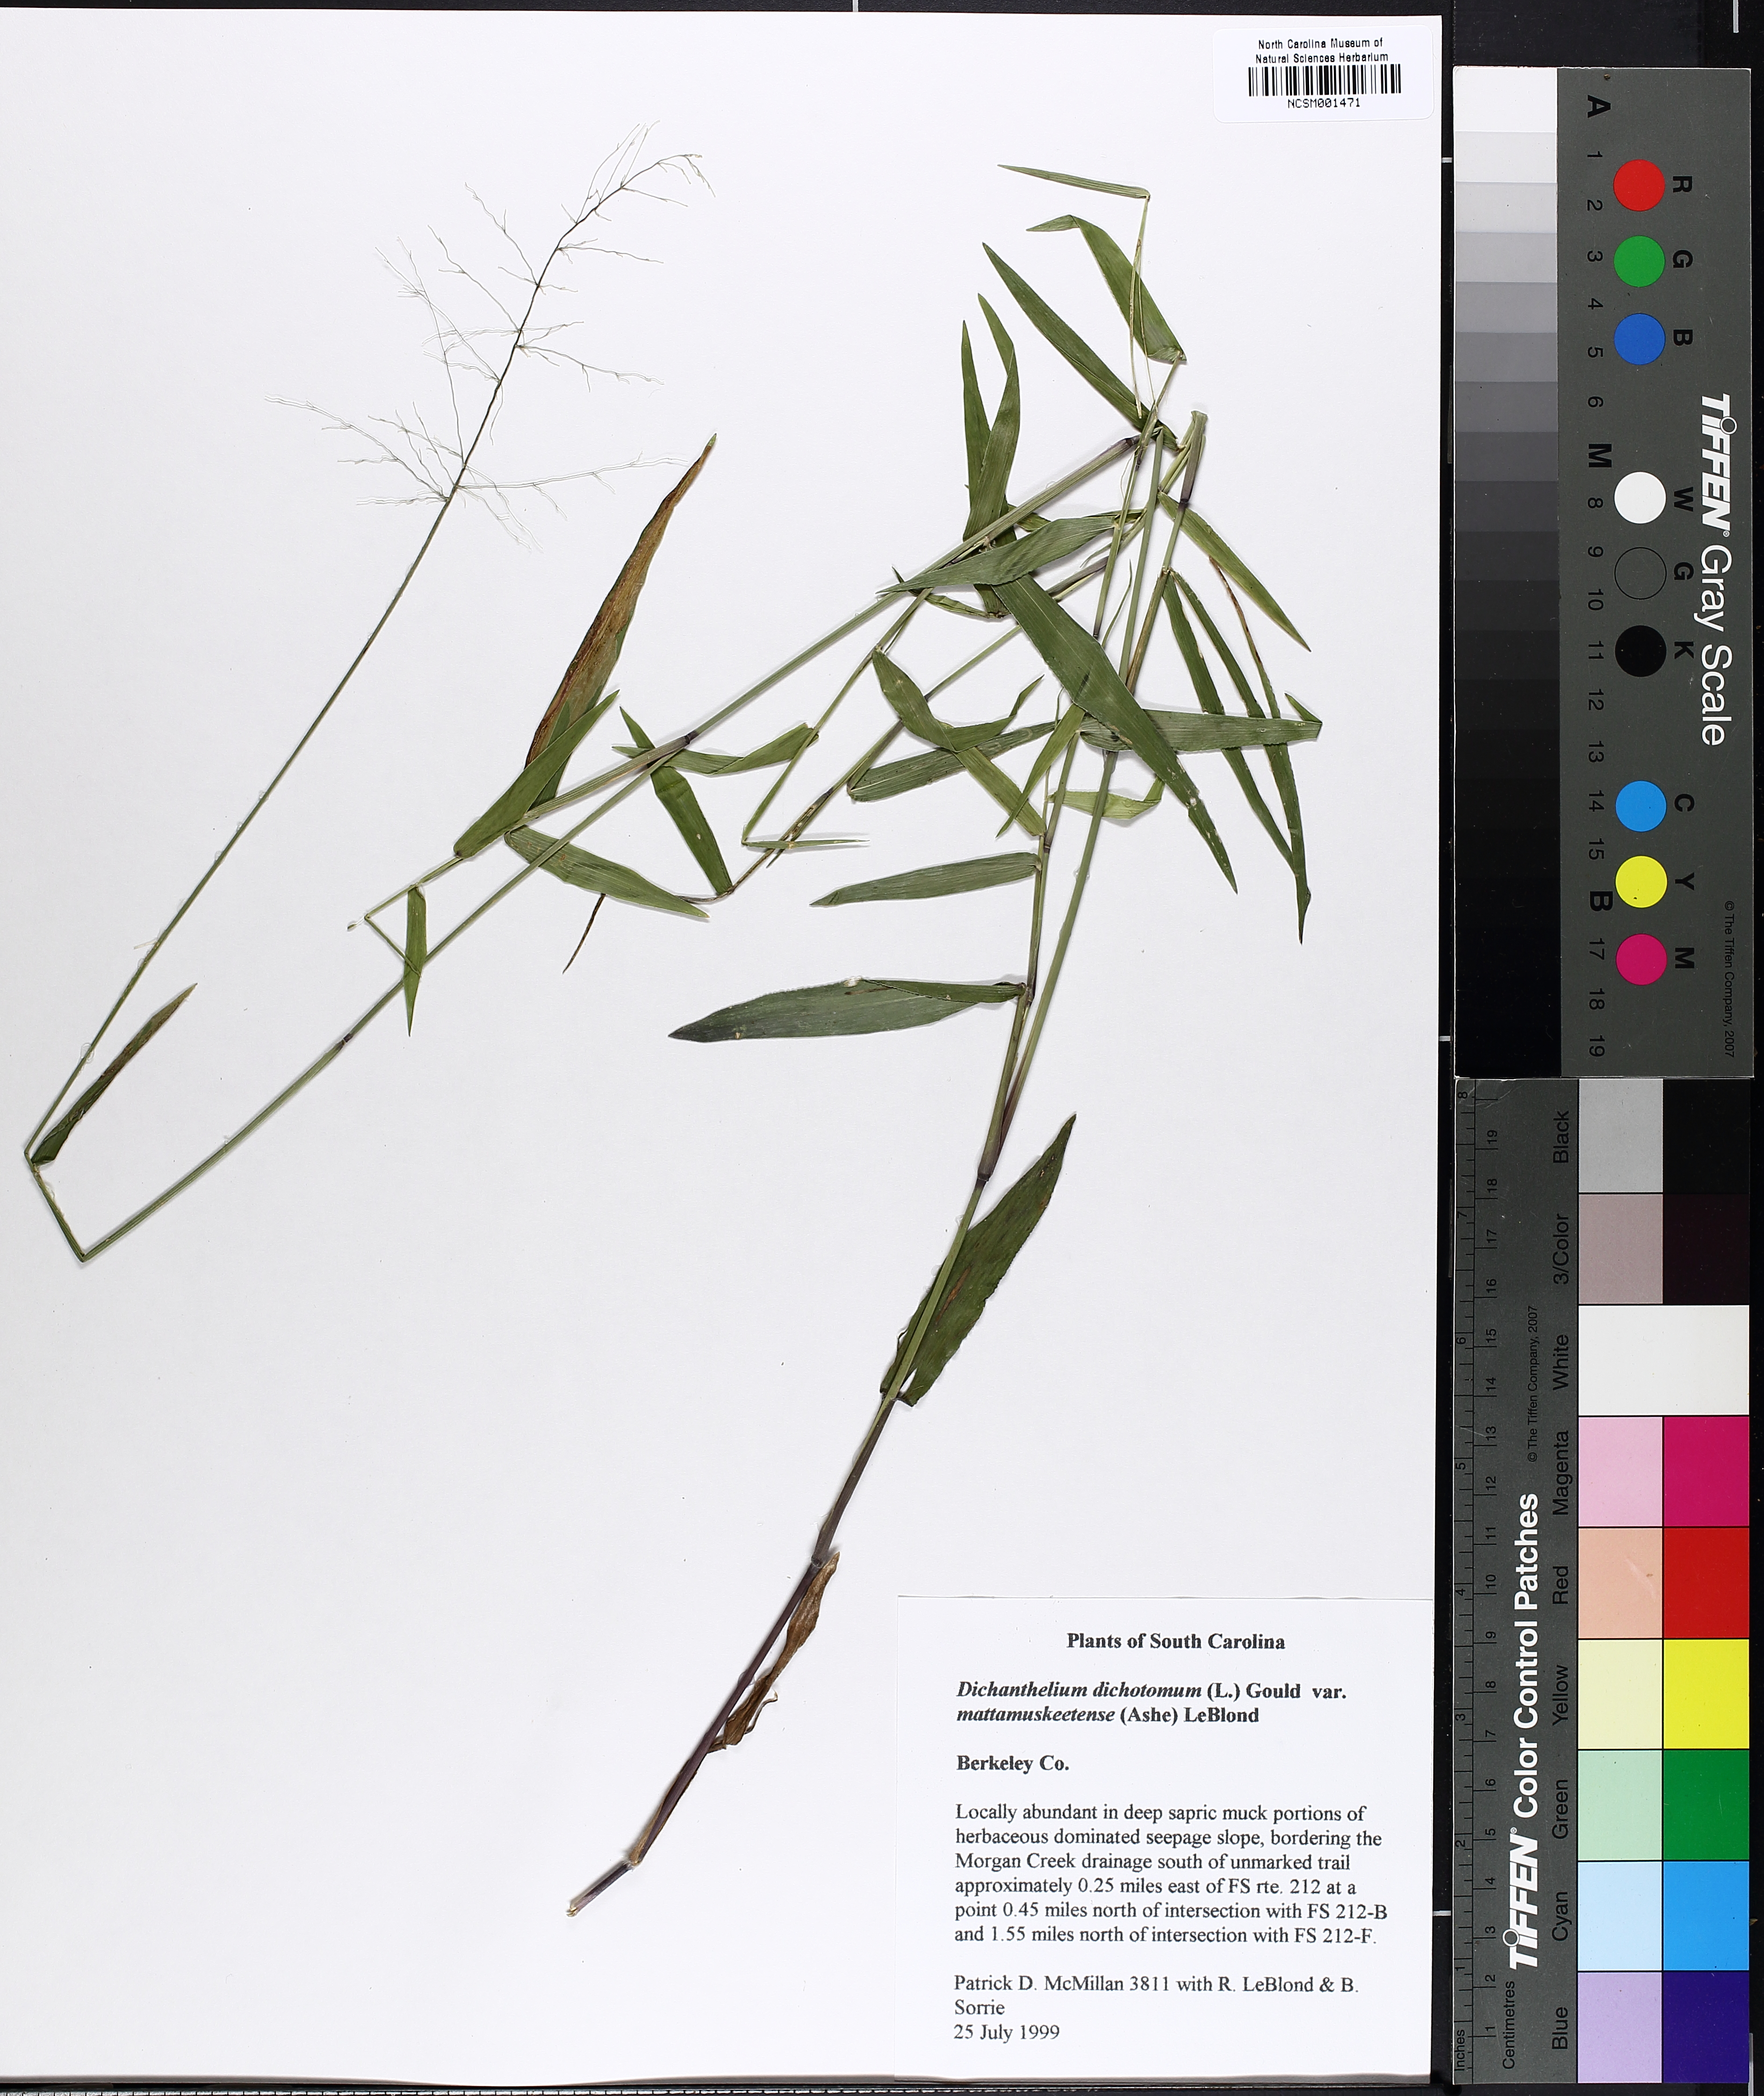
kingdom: Plantae
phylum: Tracheophyta
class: Liliopsida
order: Poales
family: Poaceae
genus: Dichanthelium
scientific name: Dichanthelium mattamuskeetense
